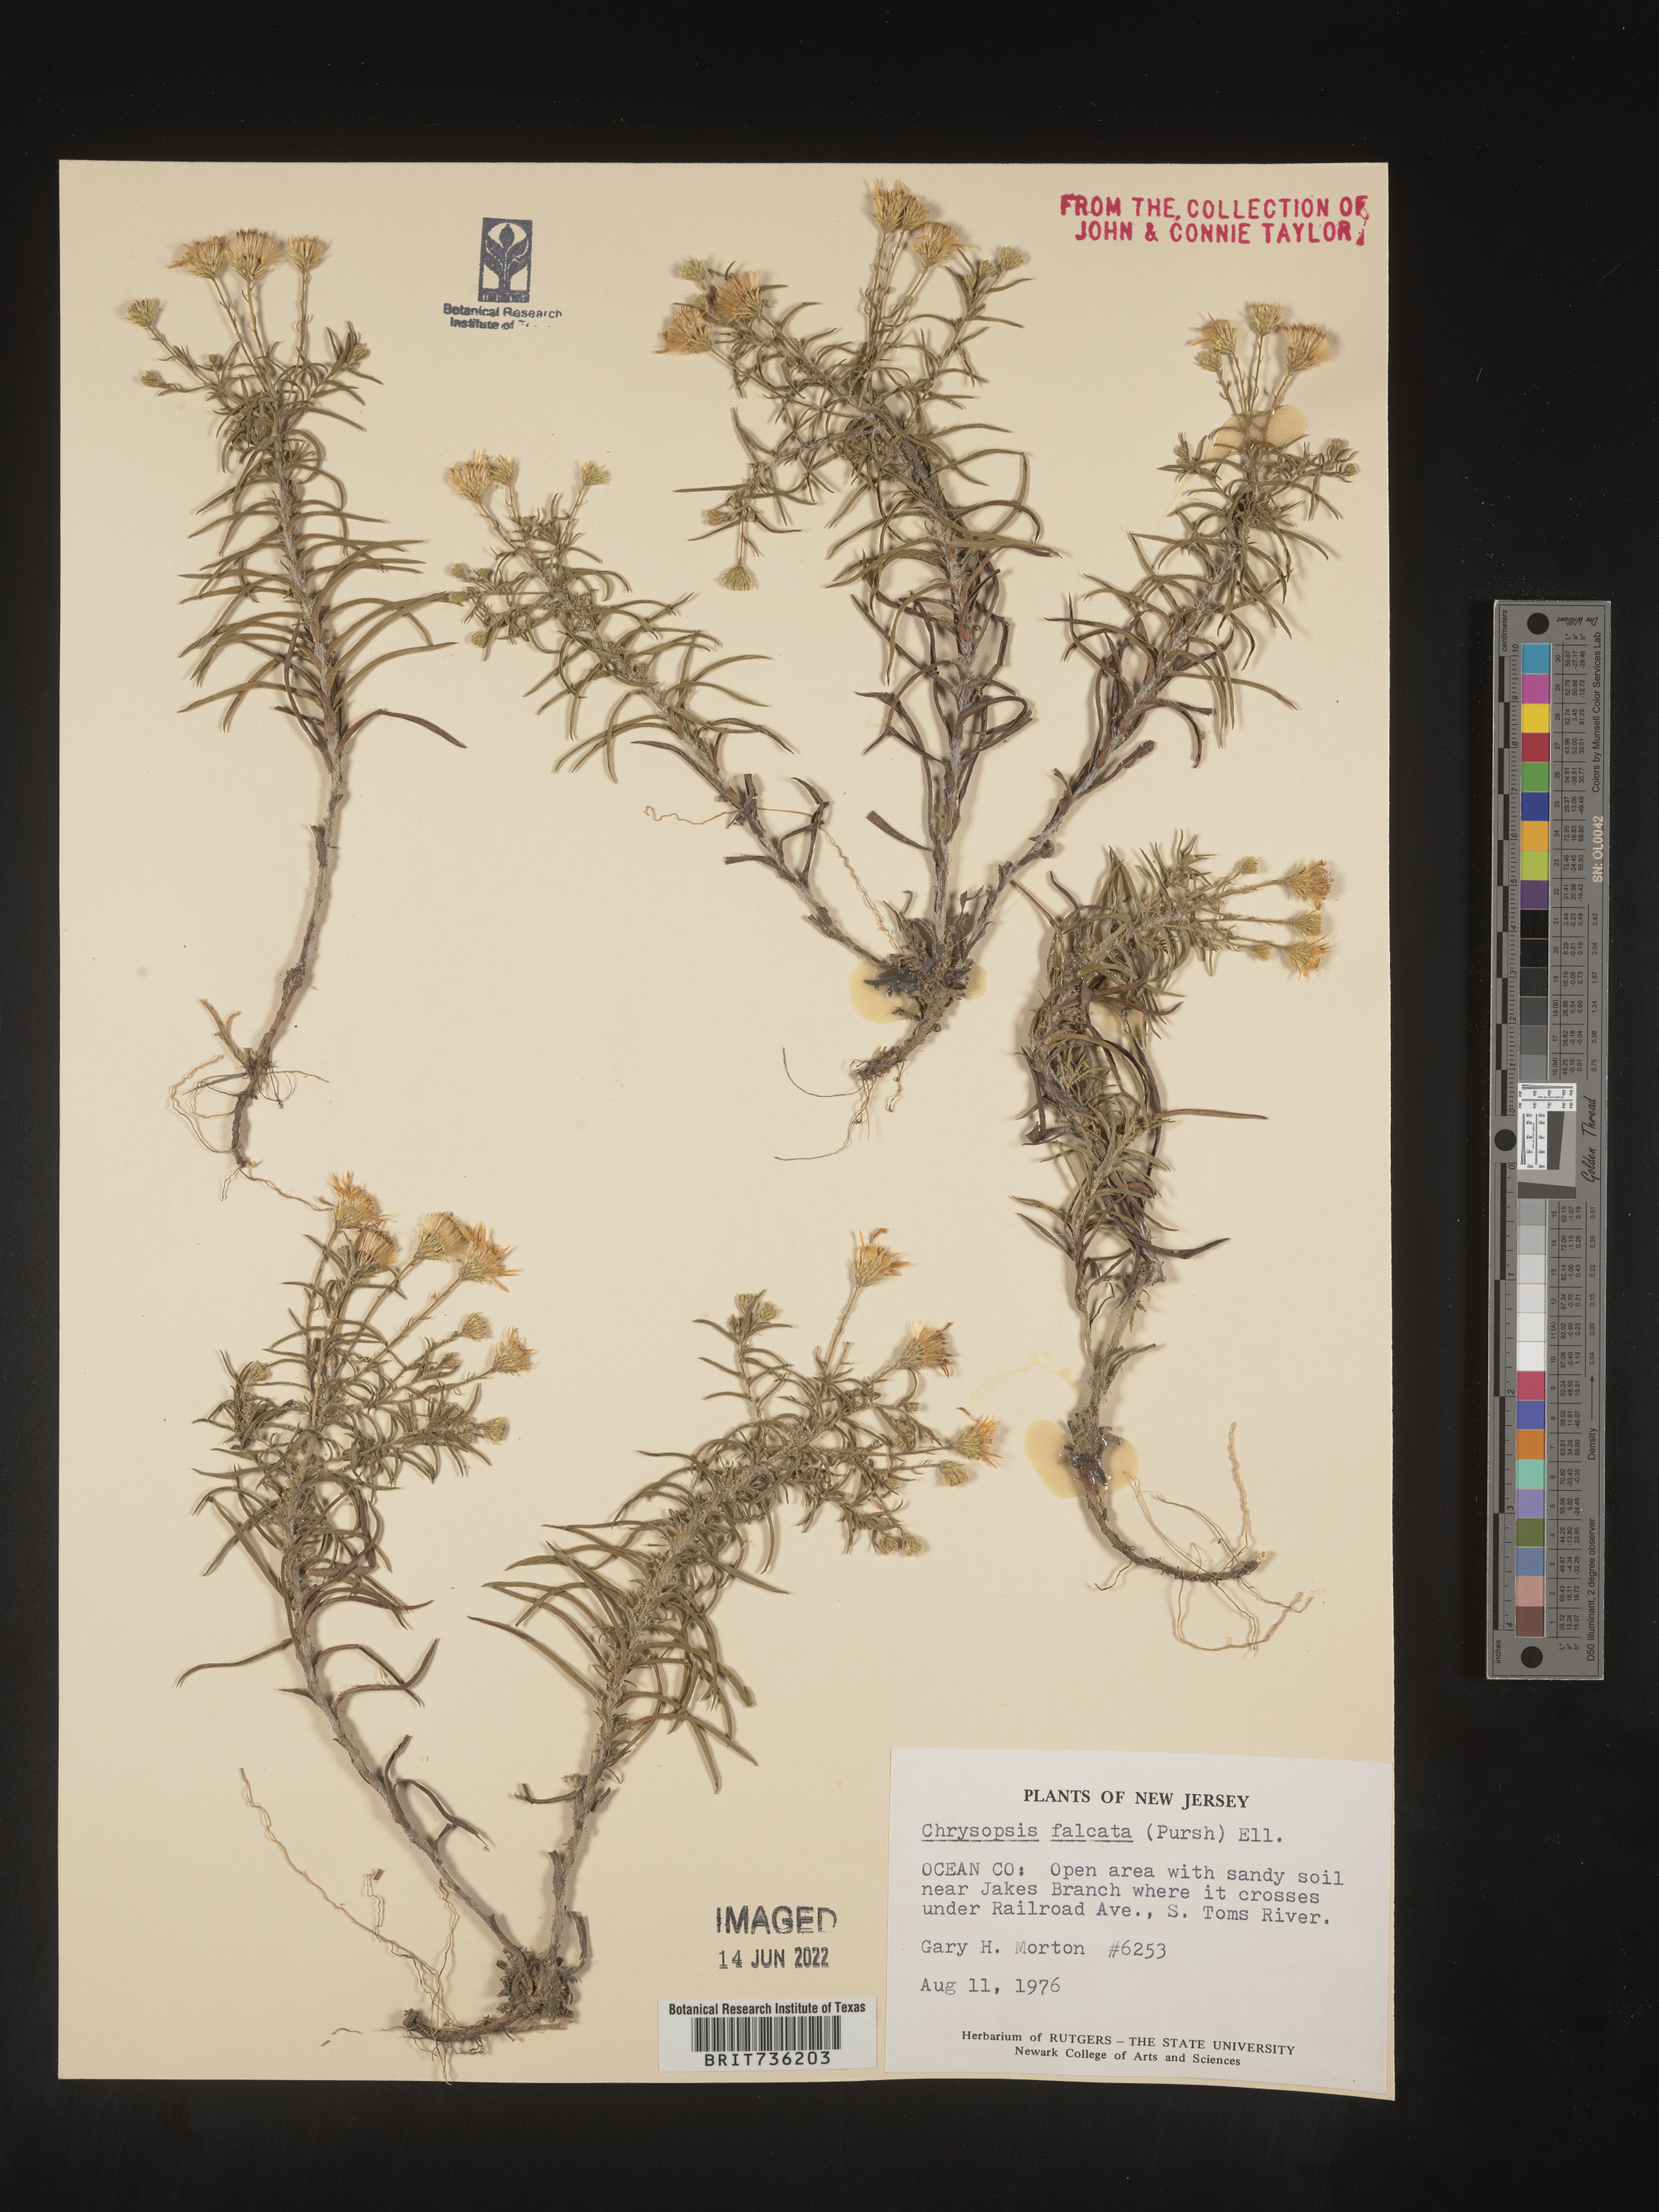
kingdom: Plantae
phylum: Tracheophyta
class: Magnoliopsida
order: Asterales
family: Asteraceae
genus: Pityopsis
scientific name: Pityopsis falcata
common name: Sickle-leaved goldenaster
